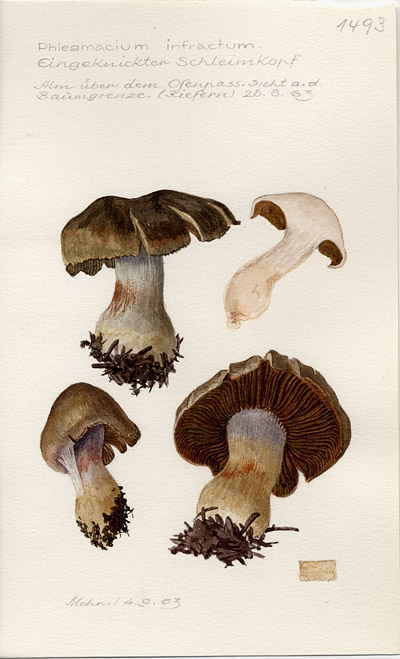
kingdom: Fungi
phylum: Basidiomycota
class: Agaricomycetes
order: Agaricales
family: Cortinariaceae
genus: Cortinarius
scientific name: Cortinarius infractus
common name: Bitter webcap
